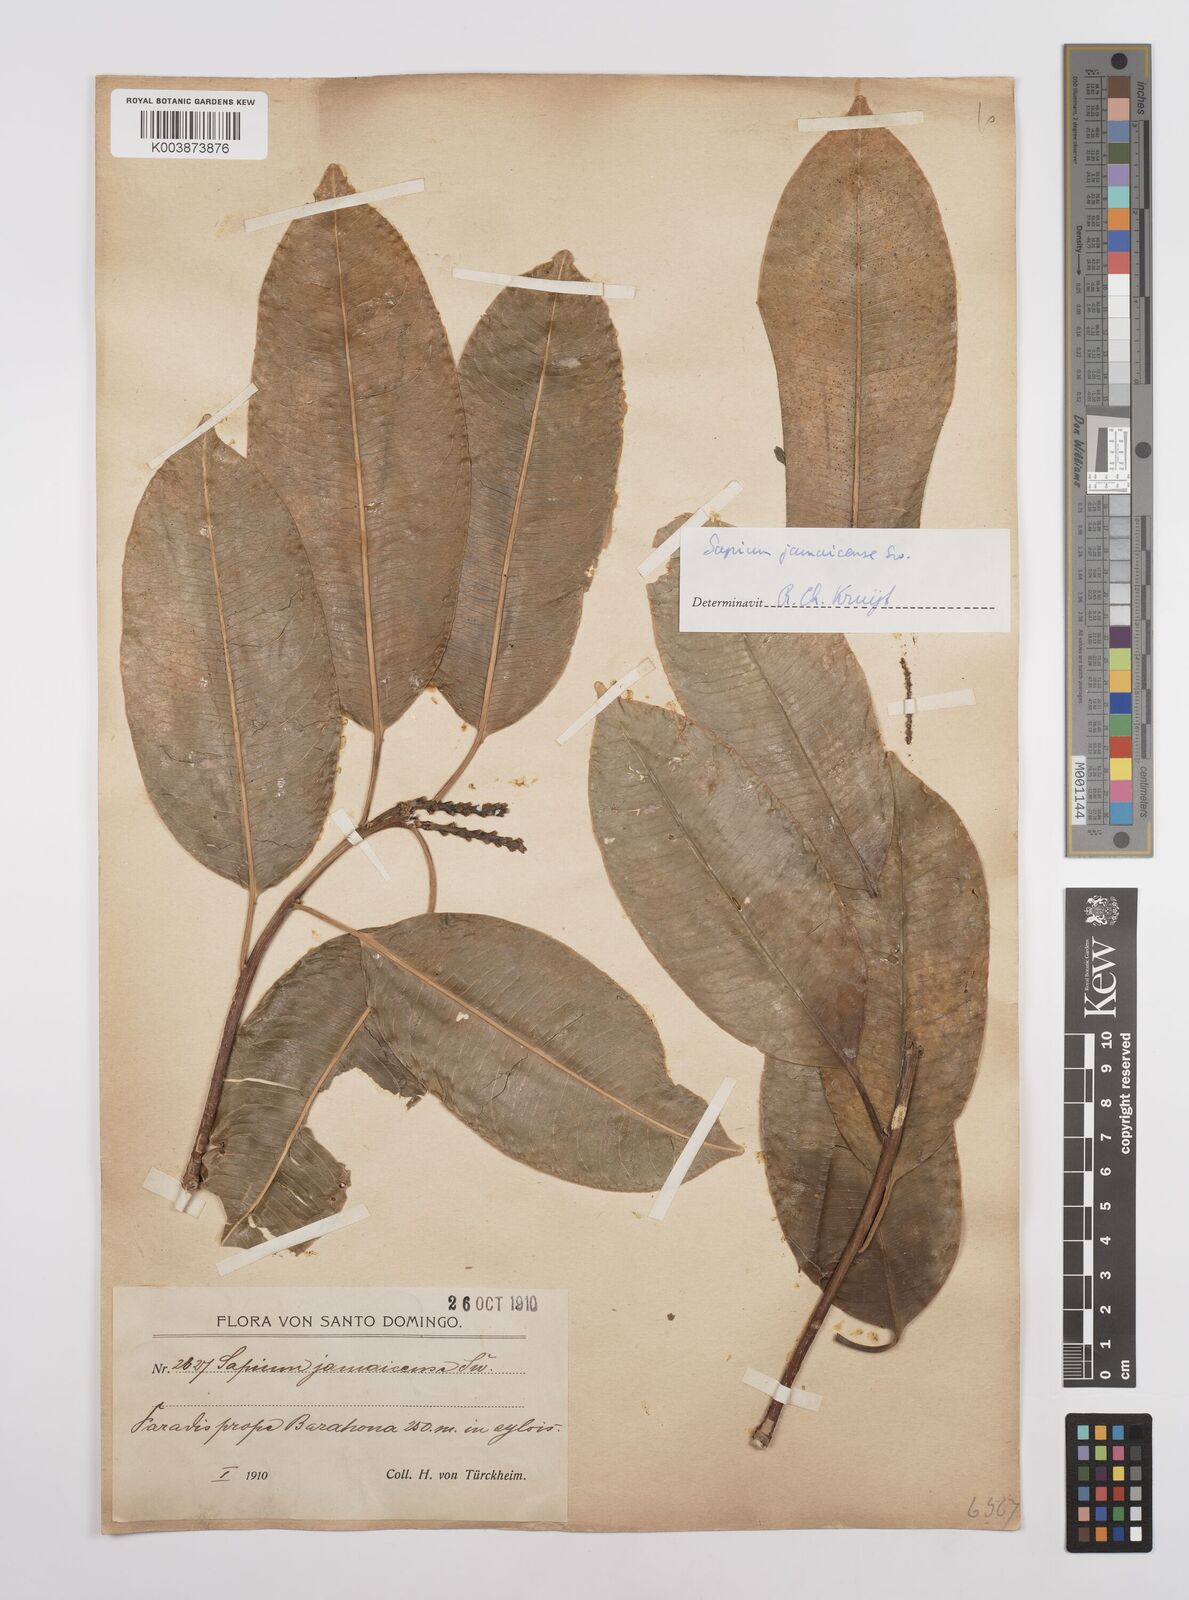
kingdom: Plantae
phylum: Tracheophyta
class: Magnoliopsida
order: Malpighiales
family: Euphorbiaceae
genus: Sapium
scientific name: Sapium glandulosum
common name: Milktree
